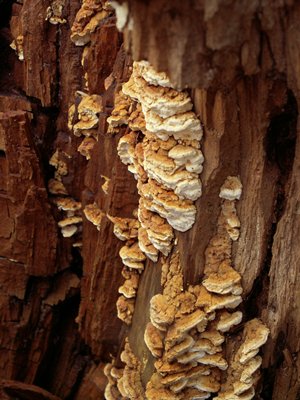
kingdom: Fungi
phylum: Basidiomycota
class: Agaricomycetes
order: Polyporales
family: Fomitopsidaceae
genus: Neoantrodia
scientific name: Neoantrodia serialis
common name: række-sejporesvamp
